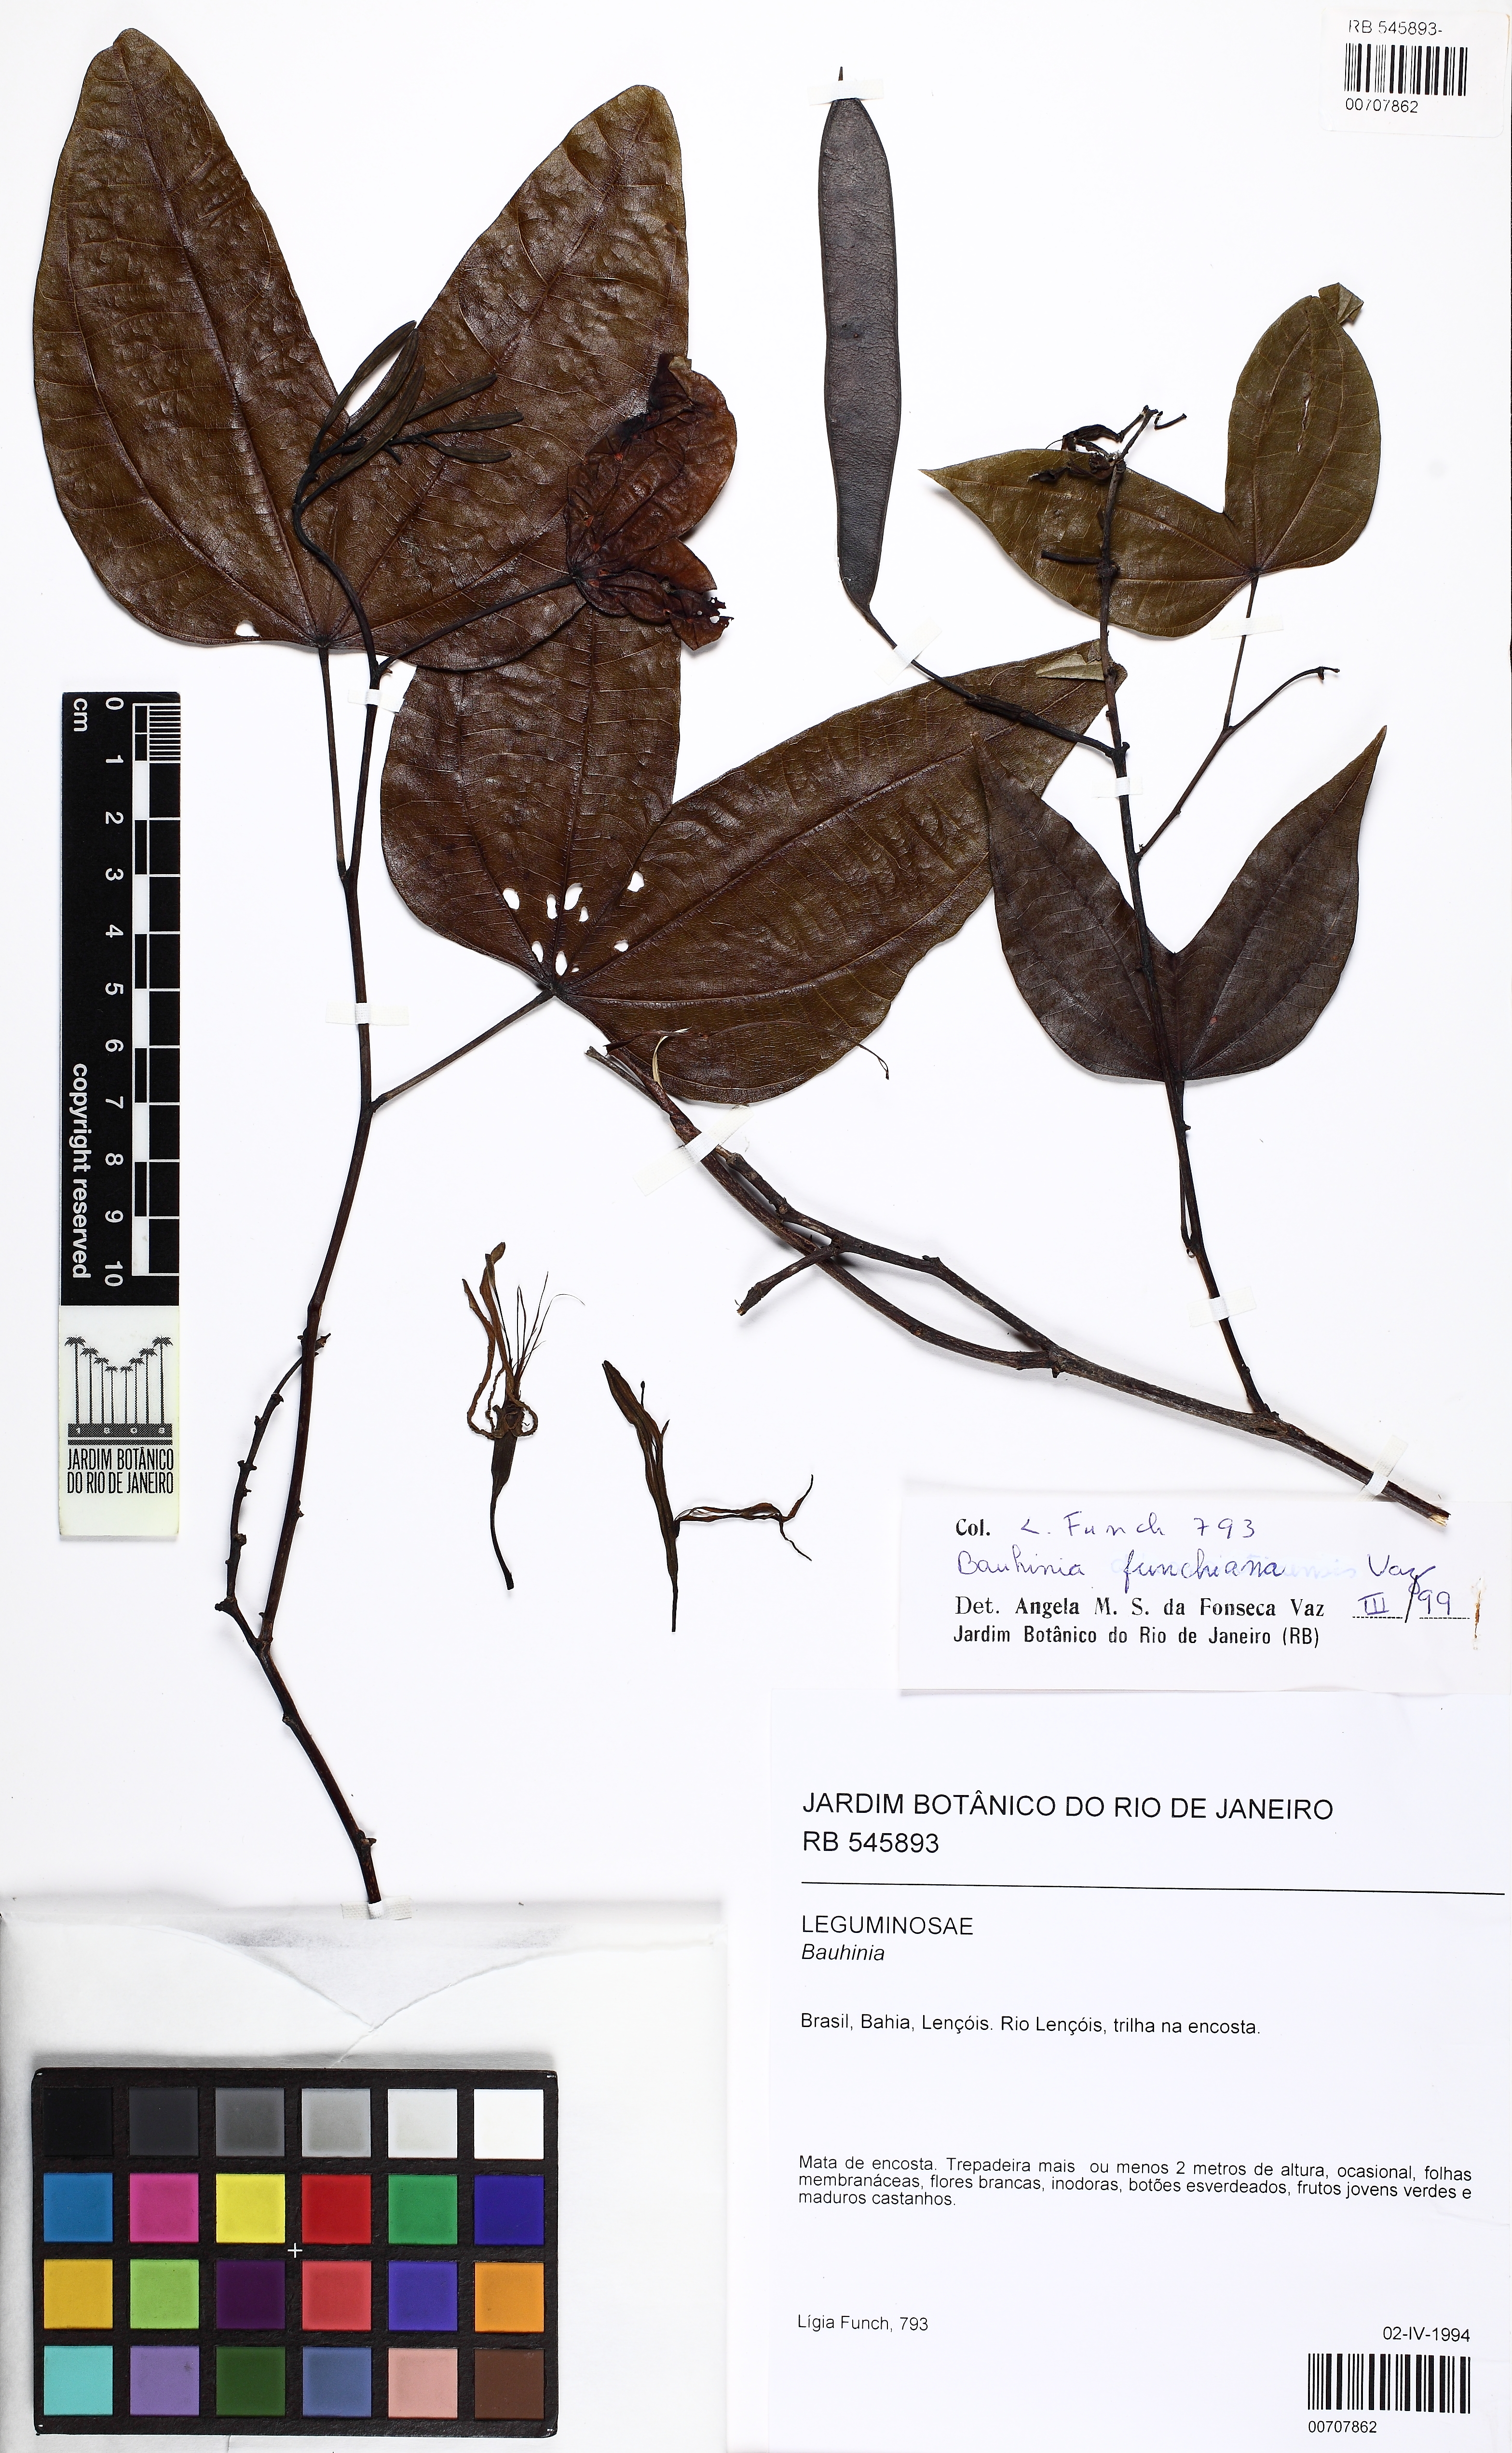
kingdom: Plantae
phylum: Tracheophyta
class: Magnoliopsida
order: Fabales
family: Fabaceae
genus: Bauhinia
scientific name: Bauhinia funchiana
